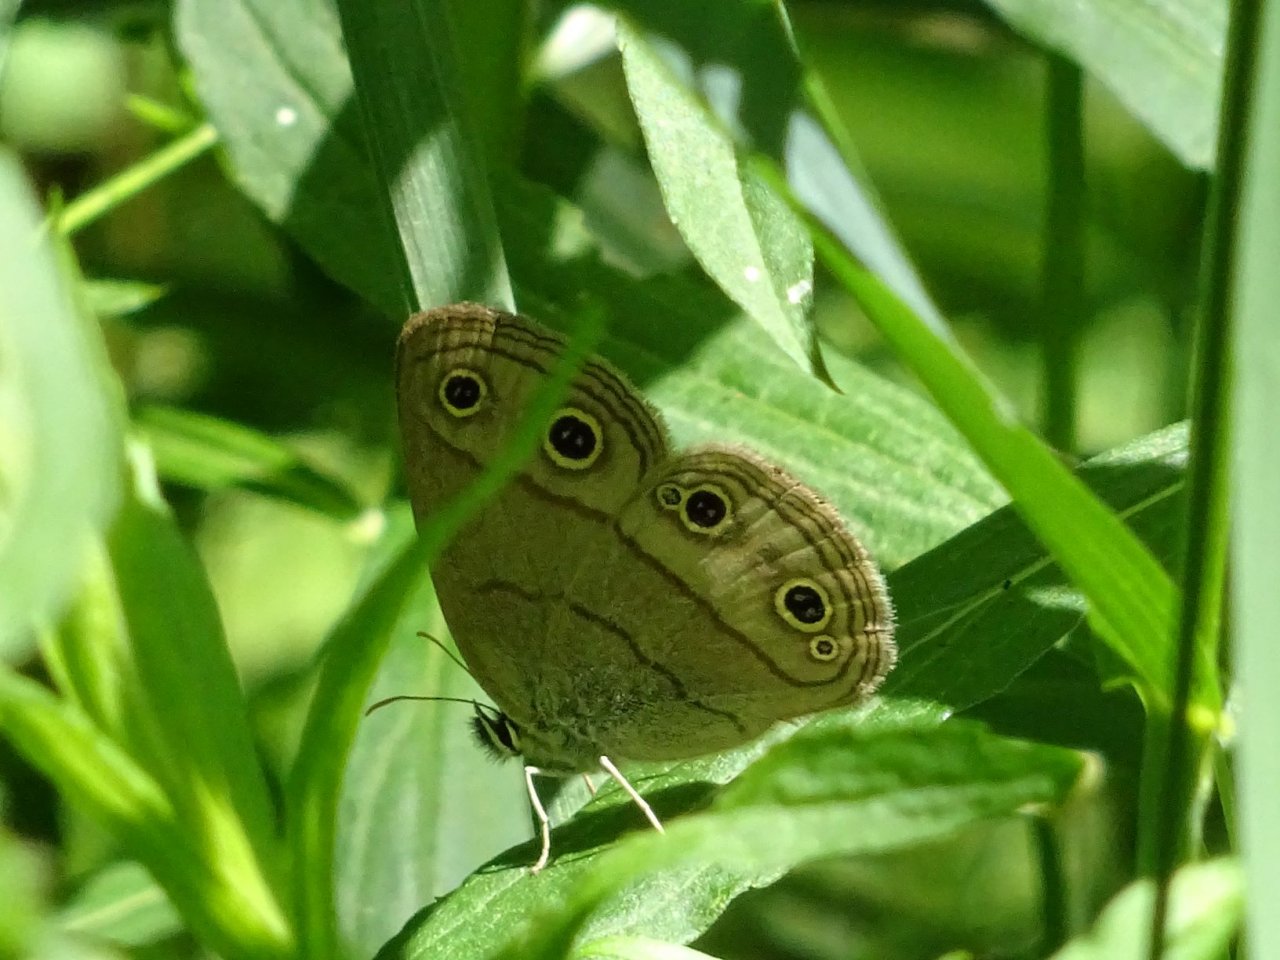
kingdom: Animalia
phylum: Arthropoda
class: Insecta
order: Lepidoptera
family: Nymphalidae
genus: Euptychia
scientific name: Euptychia cymela
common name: Little Wood Satyr
